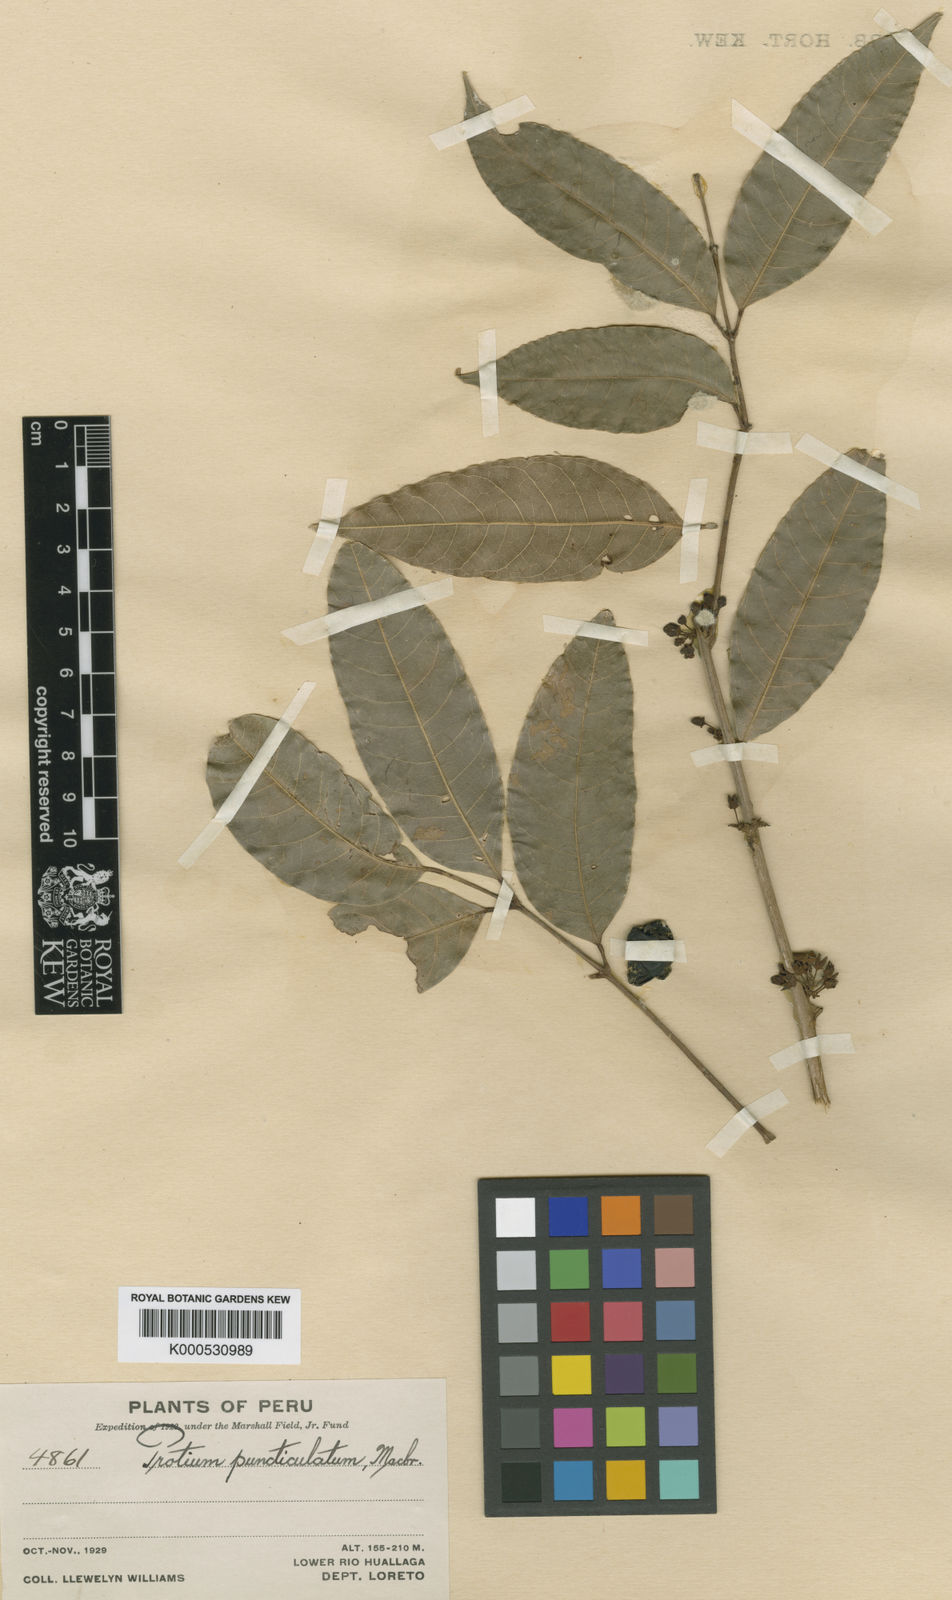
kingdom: Plantae
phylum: Tracheophyta
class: Magnoliopsida
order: Sapindales
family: Burseraceae
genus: Protium
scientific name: Protium puncticulatum
